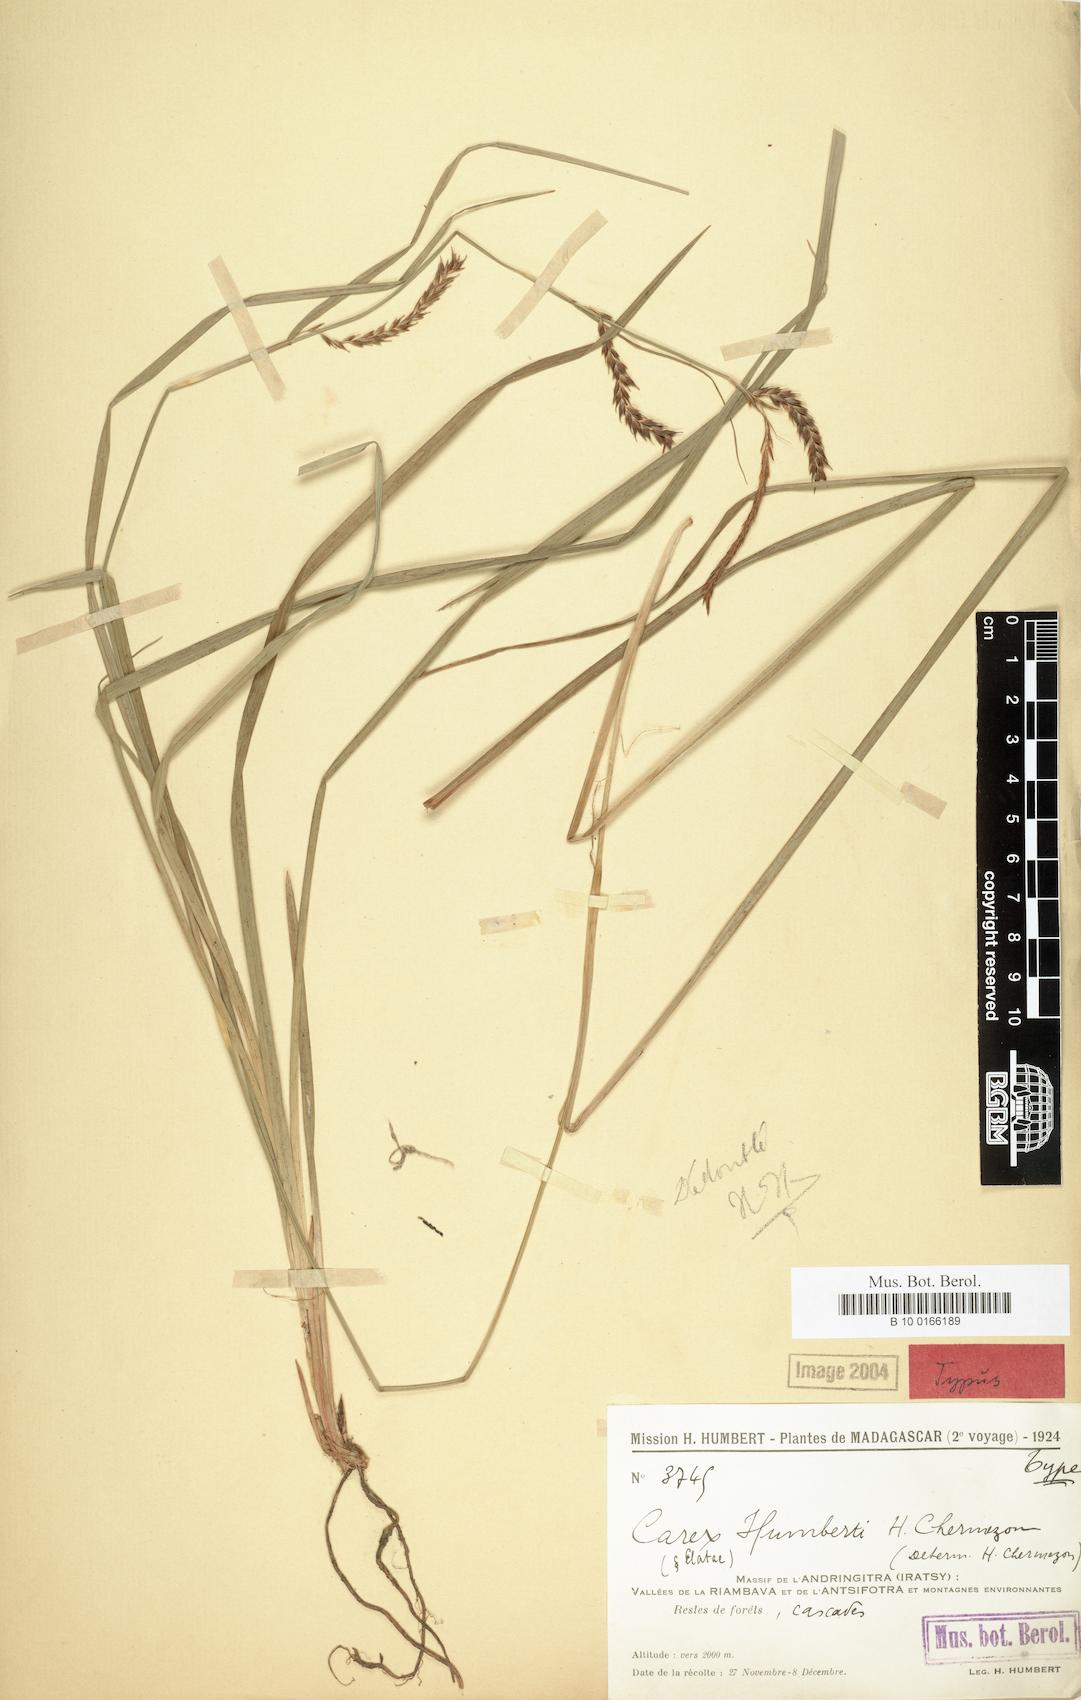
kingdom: Plantae
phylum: Tracheophyta
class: Liliopsida
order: Poales
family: Cyperaceae
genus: Carex
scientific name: Carex humbertii
